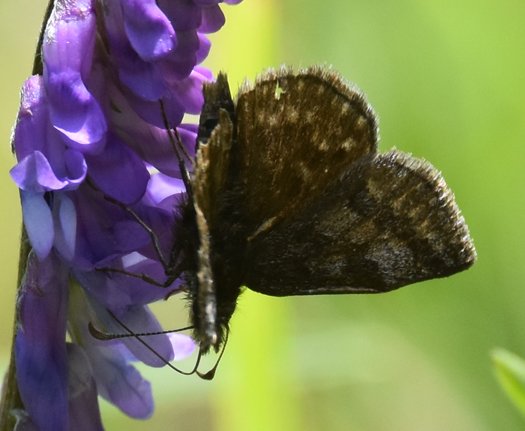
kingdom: Animalia
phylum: Arthropoda
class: Insecta
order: Lepidoptera
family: Hesperiidae
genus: Erynnis
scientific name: Erynnis icelus
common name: Dreamy Duskywing
